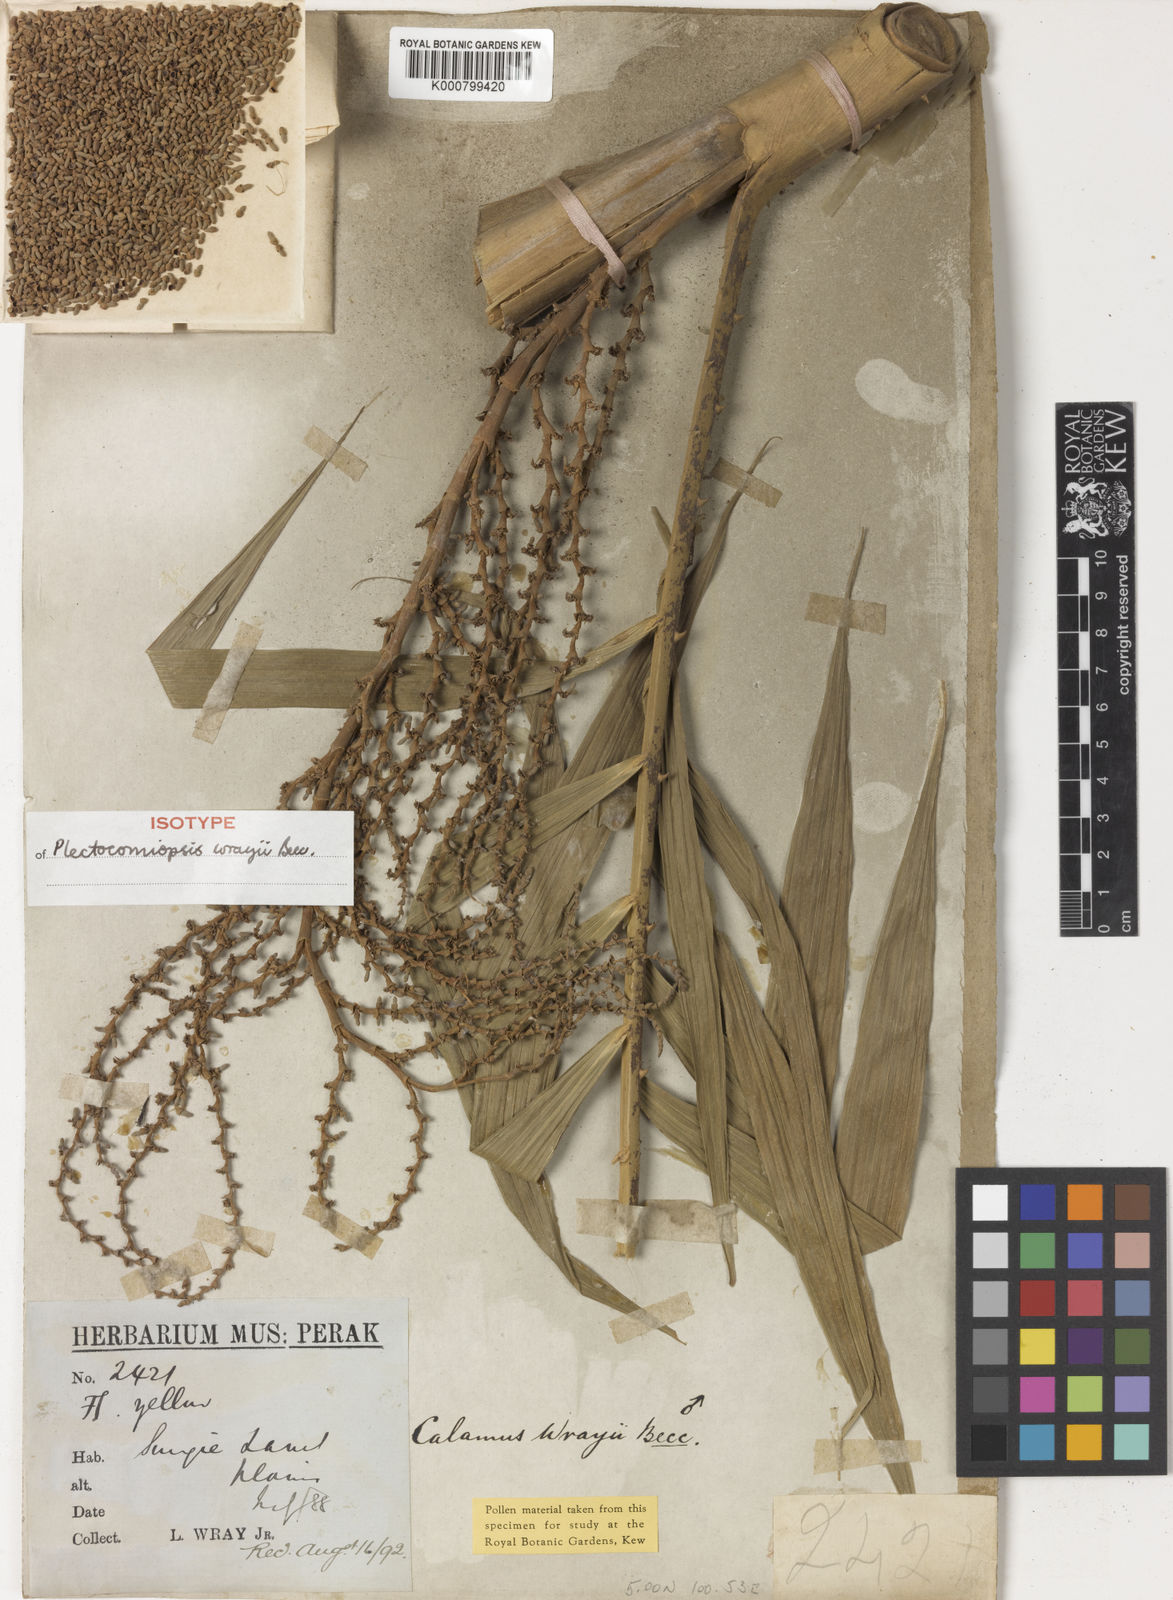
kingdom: Plantae
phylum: Tracheophyta
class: Liliopsida
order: Arecales
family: Arecaceae
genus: Plectocomiopsis
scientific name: Plectocomiopsis wrayi
